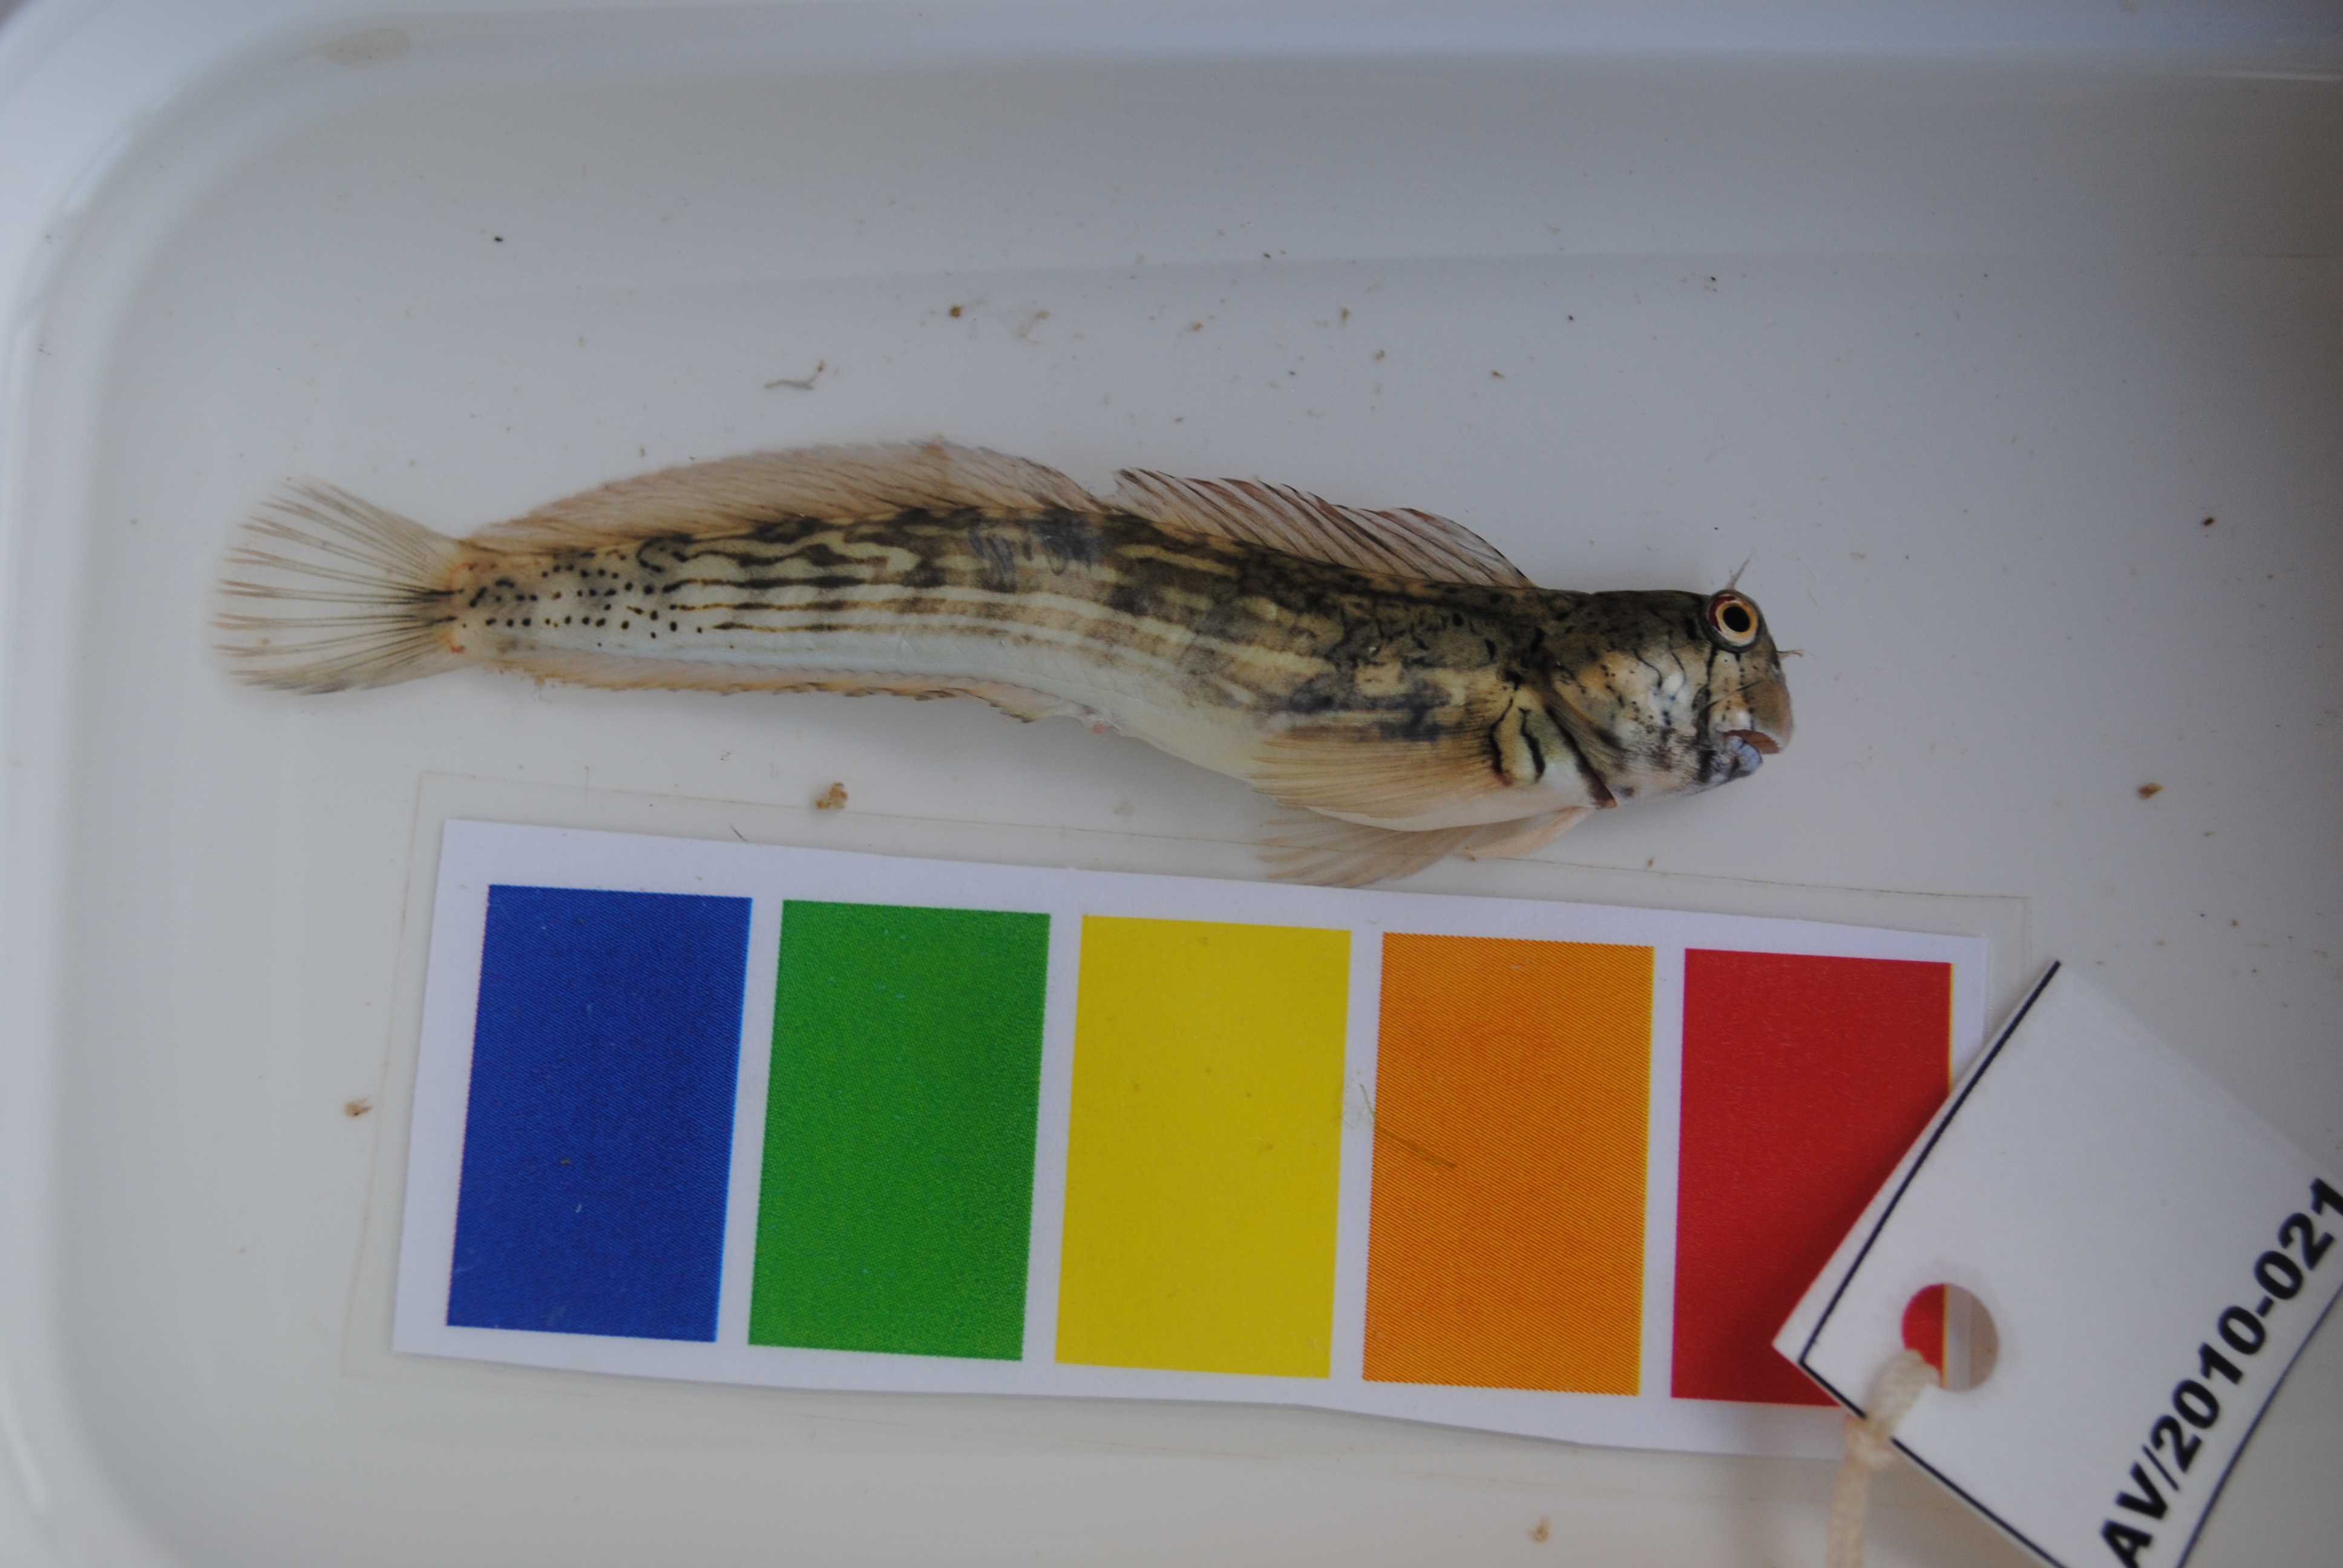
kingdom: Animalia
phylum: Chordata
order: Perciformes
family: Blenniidae
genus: Istiblennius
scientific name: Istiblennius steindachneri
